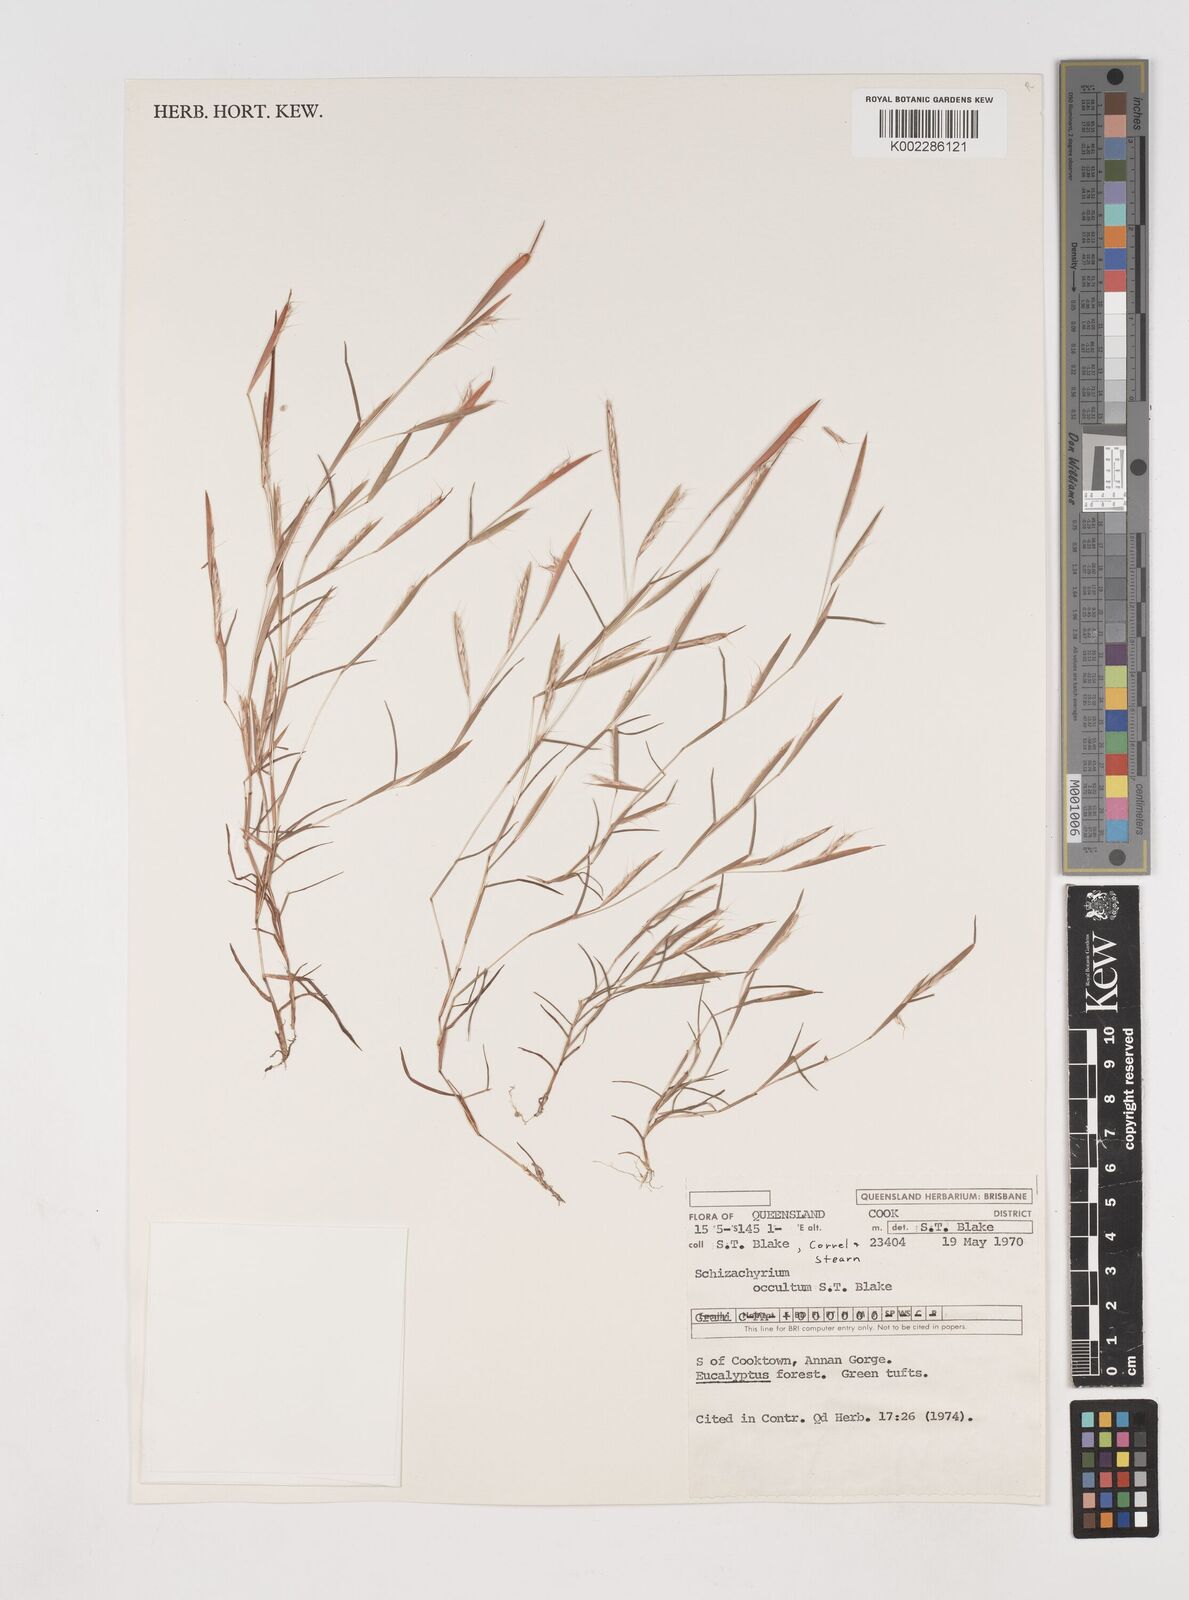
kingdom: Plantae
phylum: Tracheophyta
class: Liliopsida
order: Poales
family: Poaceae
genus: Schizachyrium
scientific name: Schizachyrium fragile
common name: Red spathe grass
